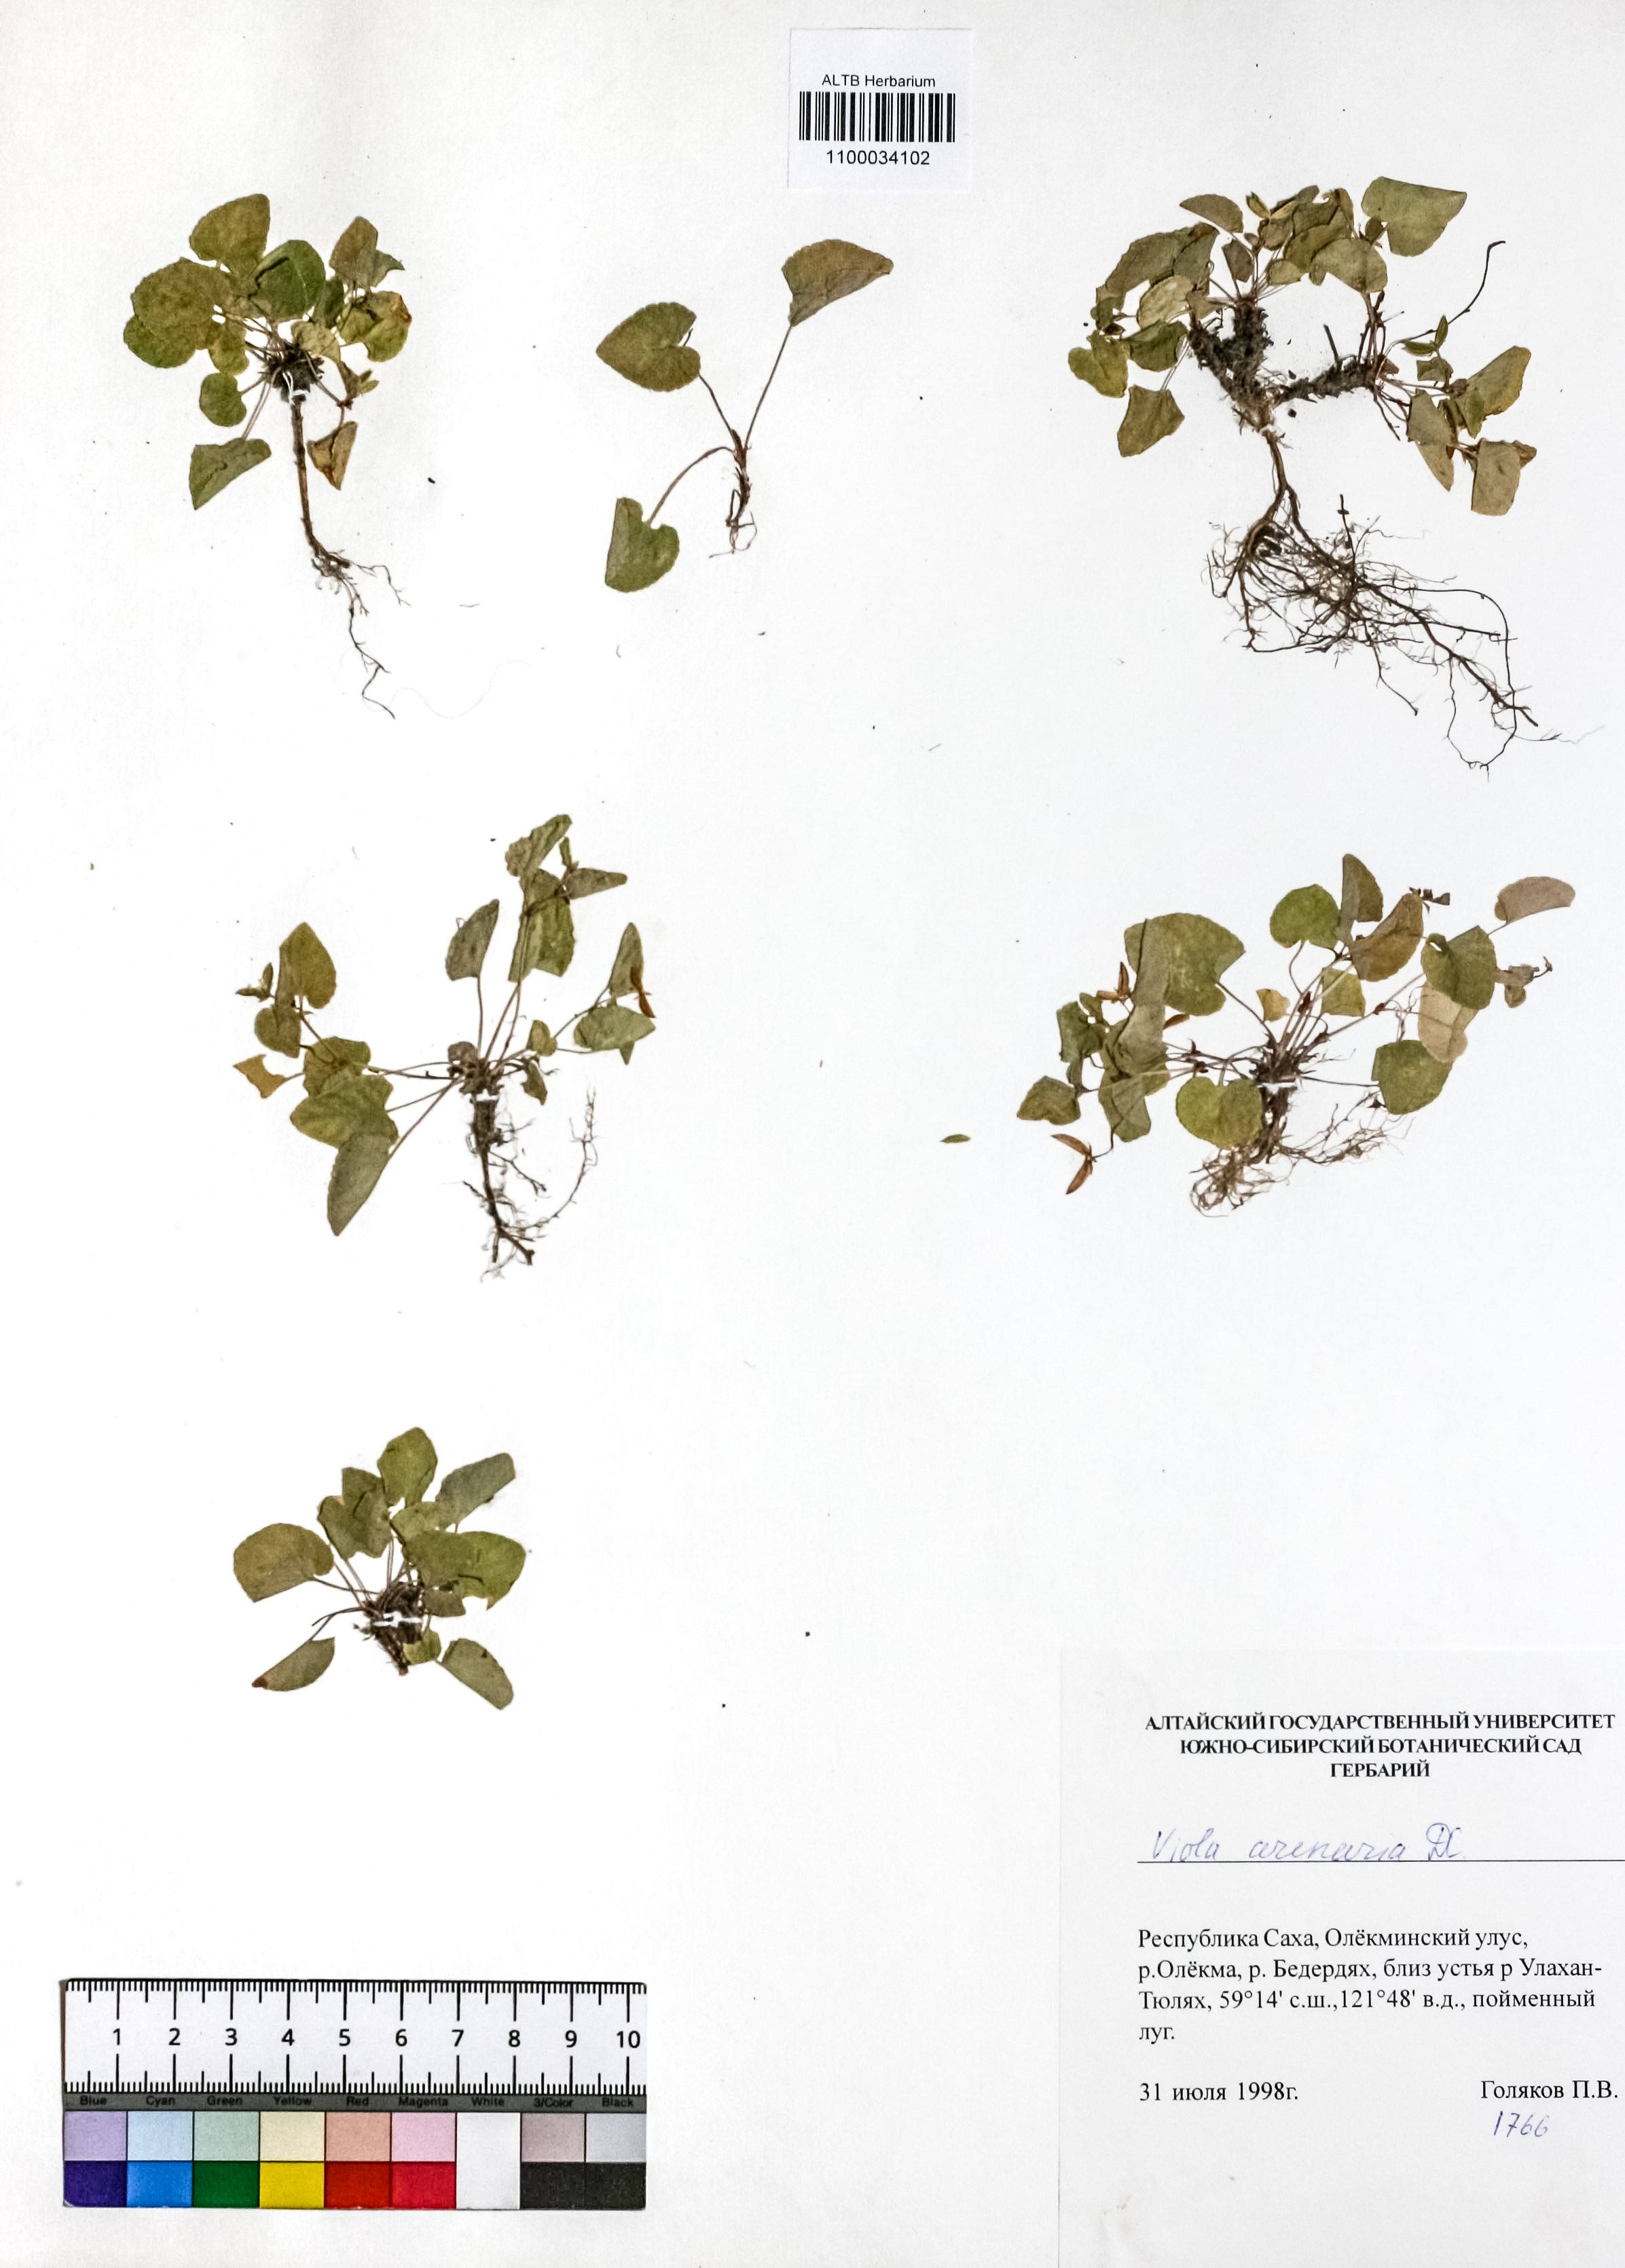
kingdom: Plantae
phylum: Tracheophyta
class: Magnoliopsida
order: Malpighiales
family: Violaceae
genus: Viola
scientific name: Viola rupestris
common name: Teesdale violet
